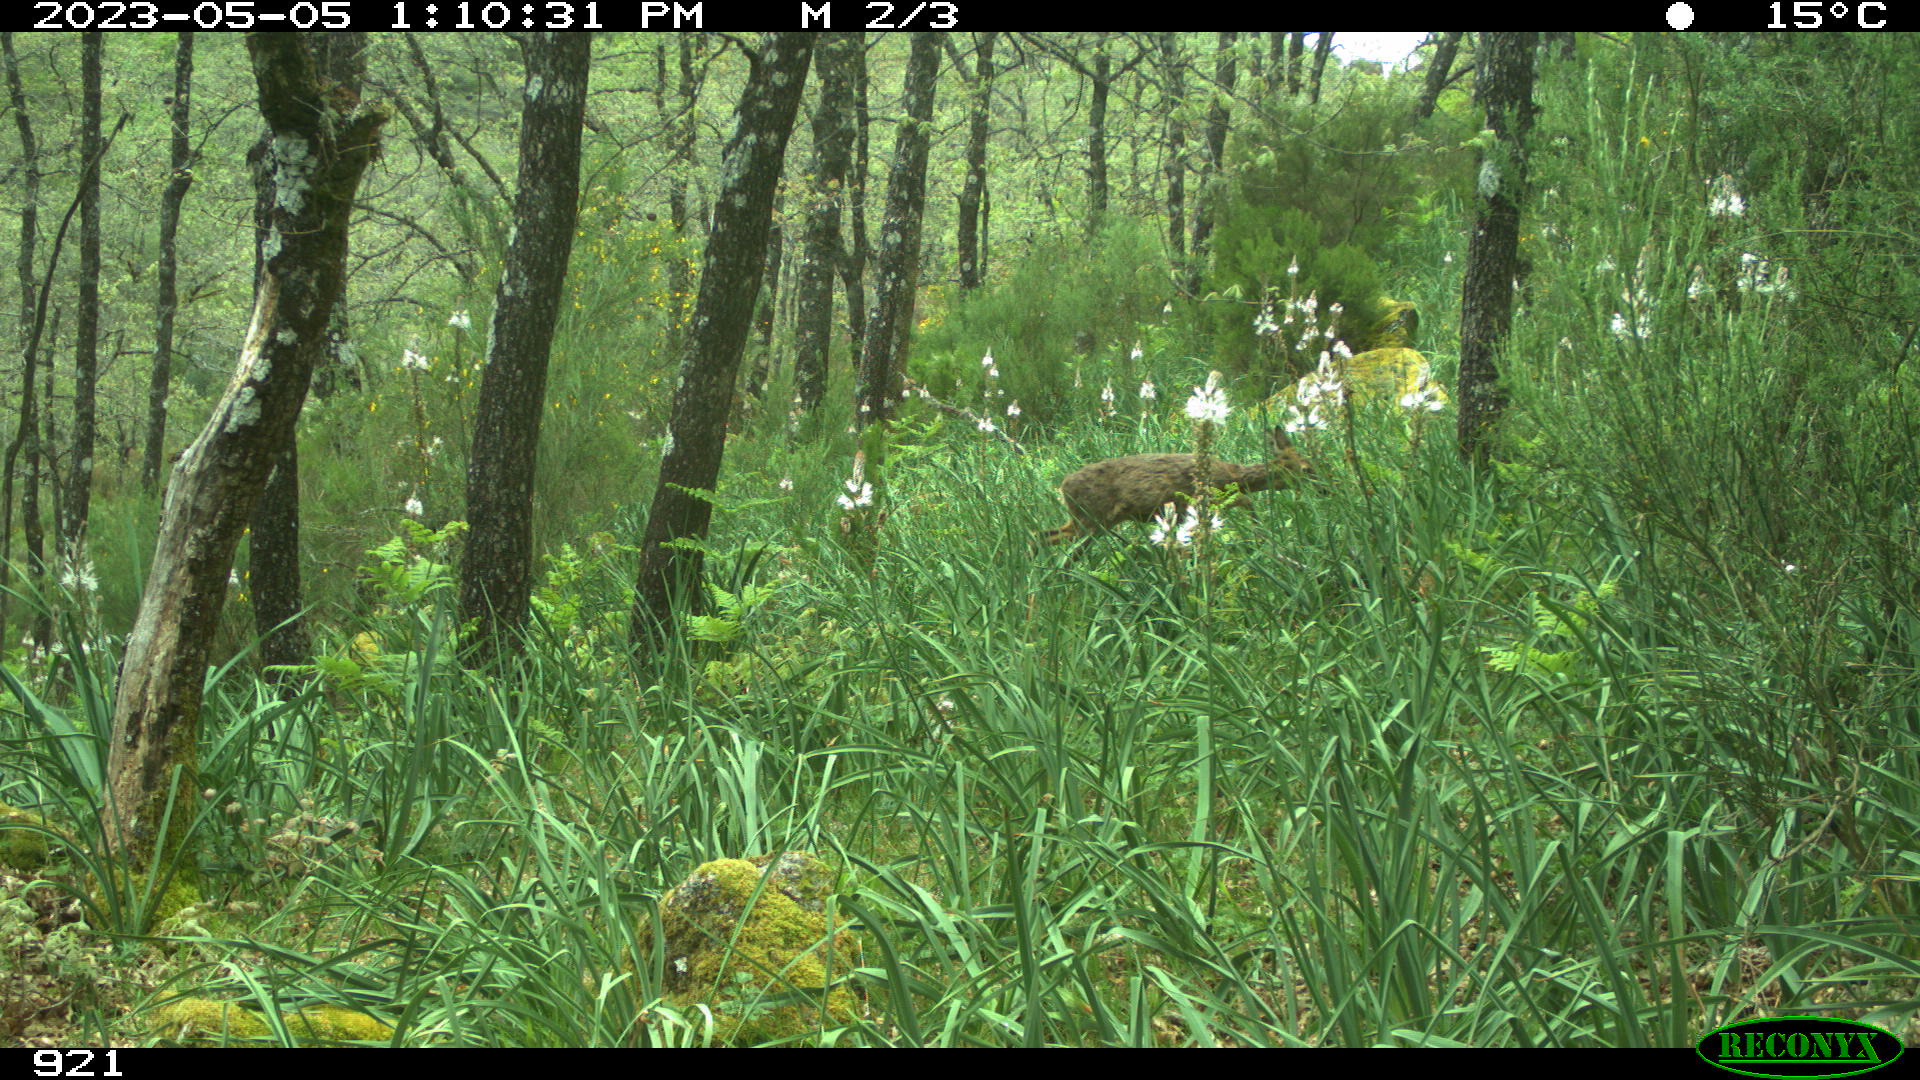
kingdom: Animalia
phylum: Chordata
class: Mammalia
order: Artiodactyla
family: Cervidae
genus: Capreolus
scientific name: Capreolus capreolus
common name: Western roe deer
